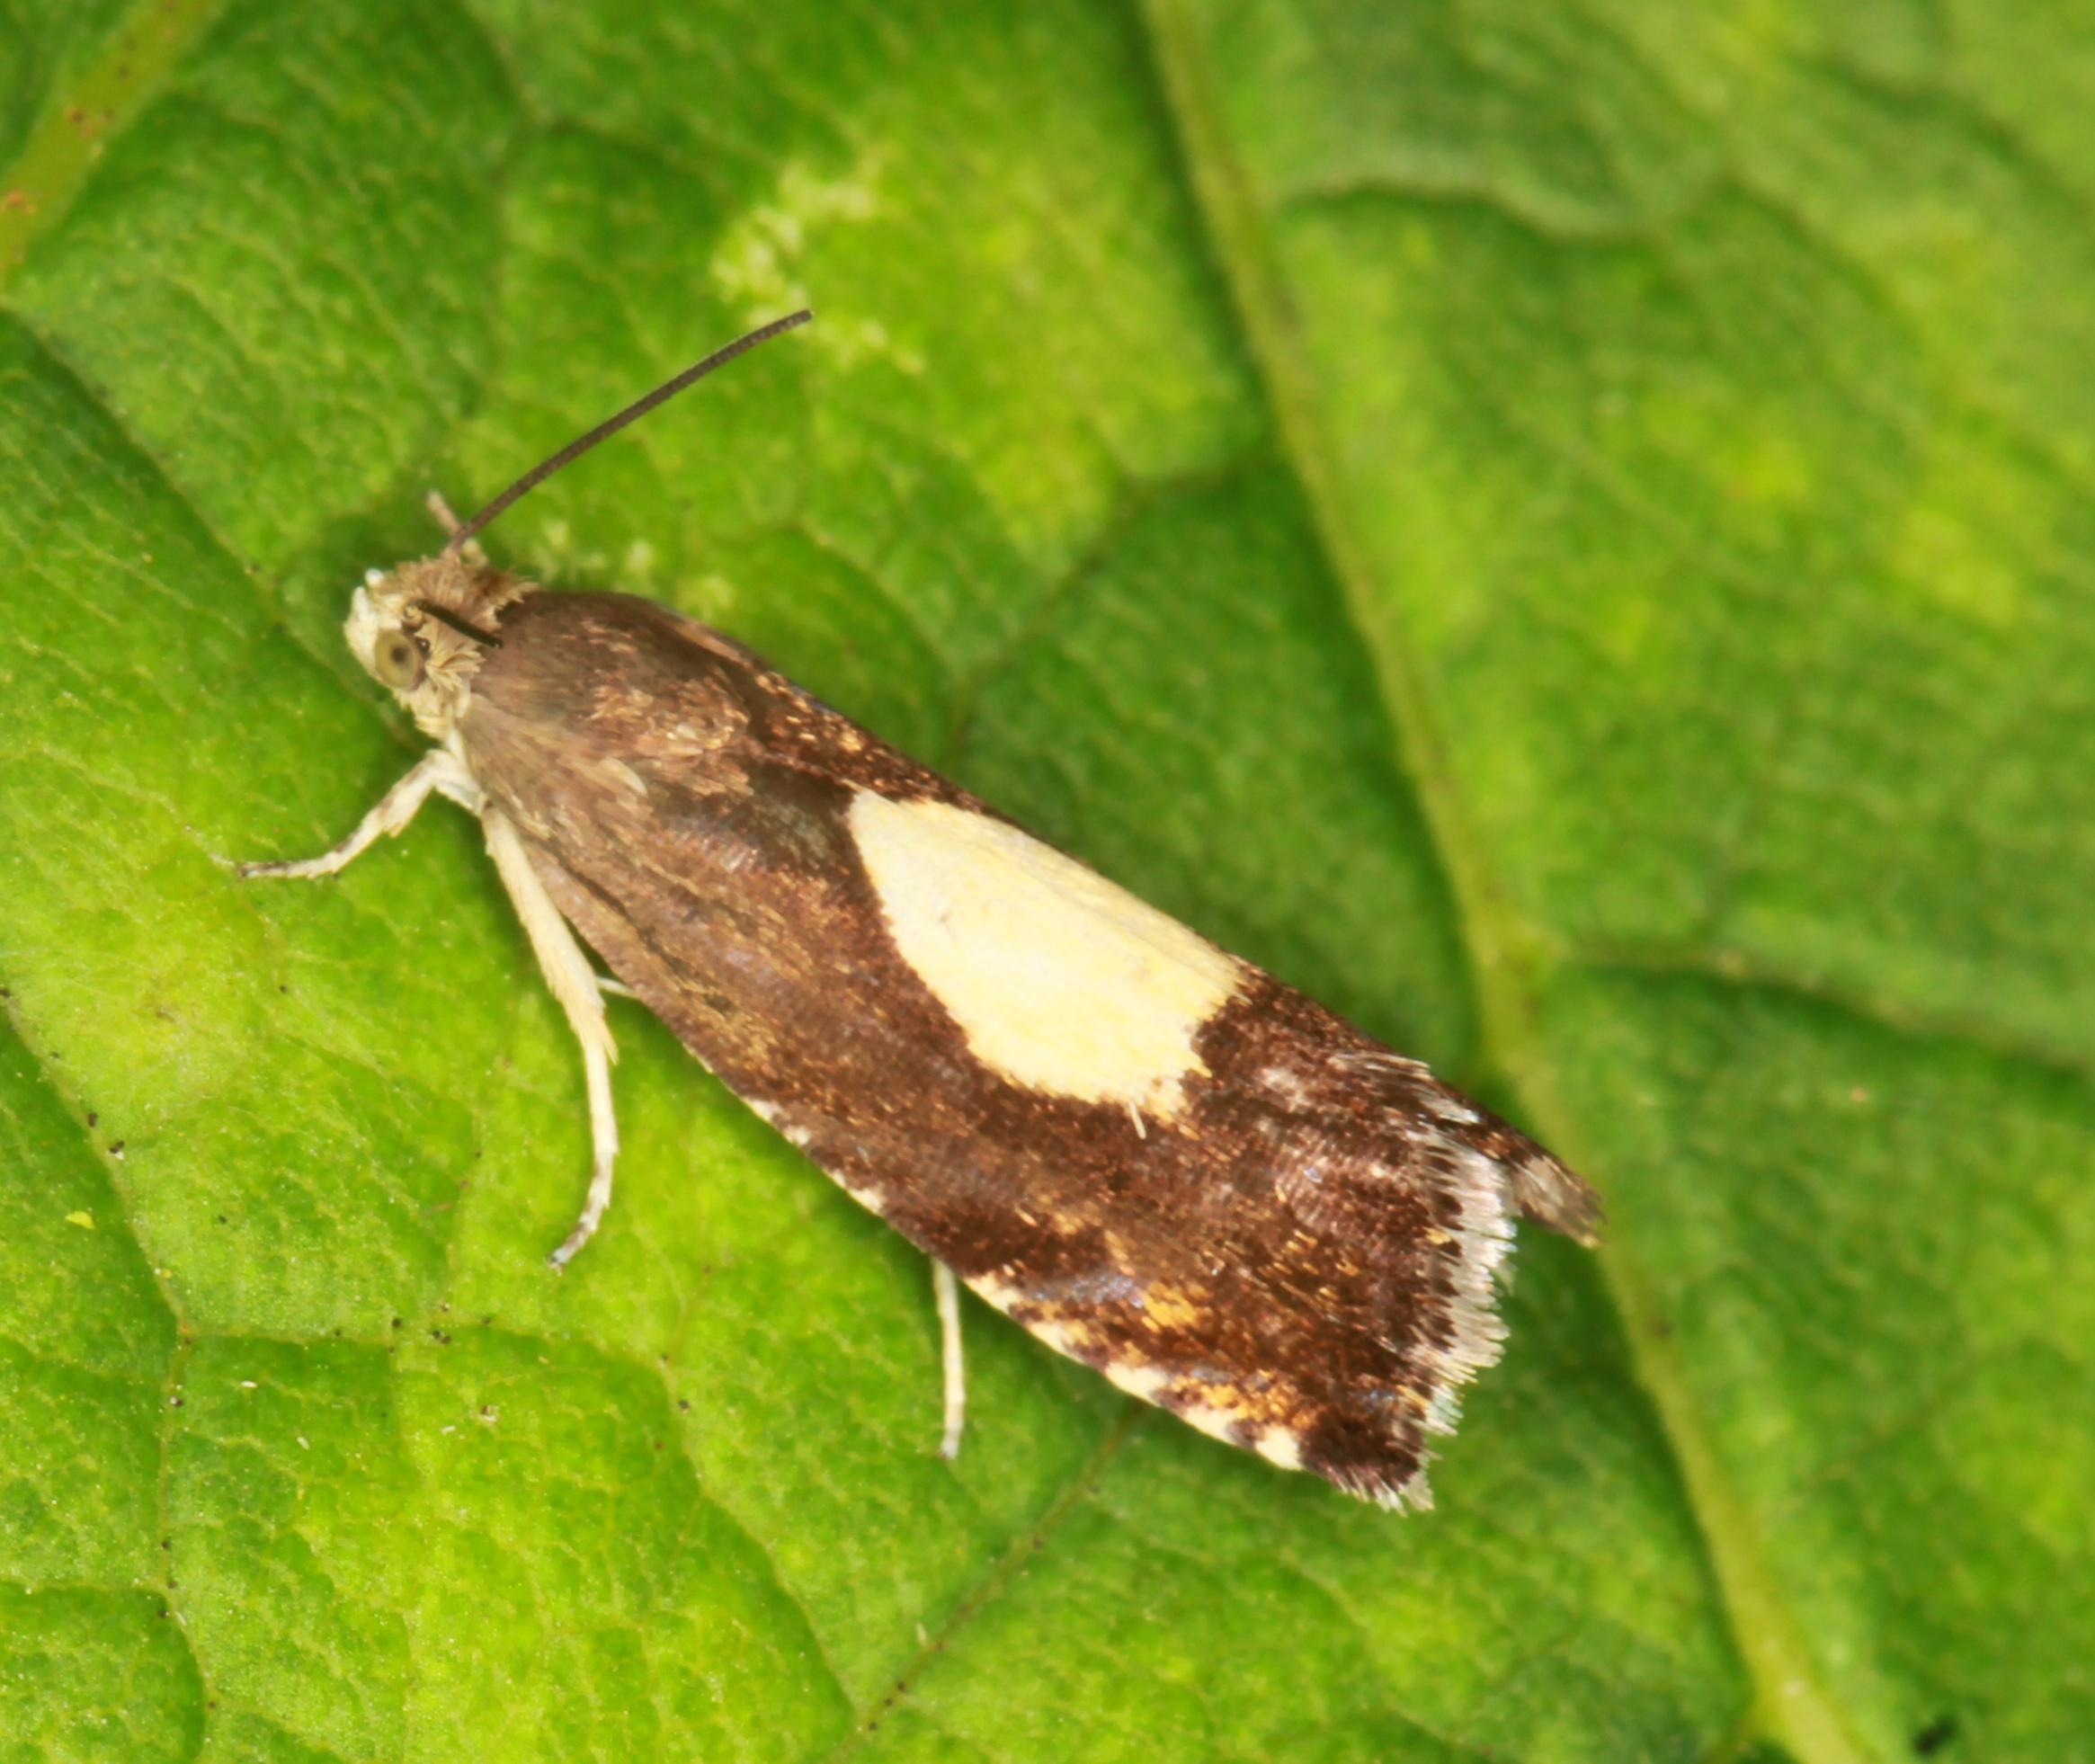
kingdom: Animalia
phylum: Arthropoda
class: Insecta
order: Lepidoptera
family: Tortricidae
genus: Pammene
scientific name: Pammene regiana
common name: Ahornsolvikler
